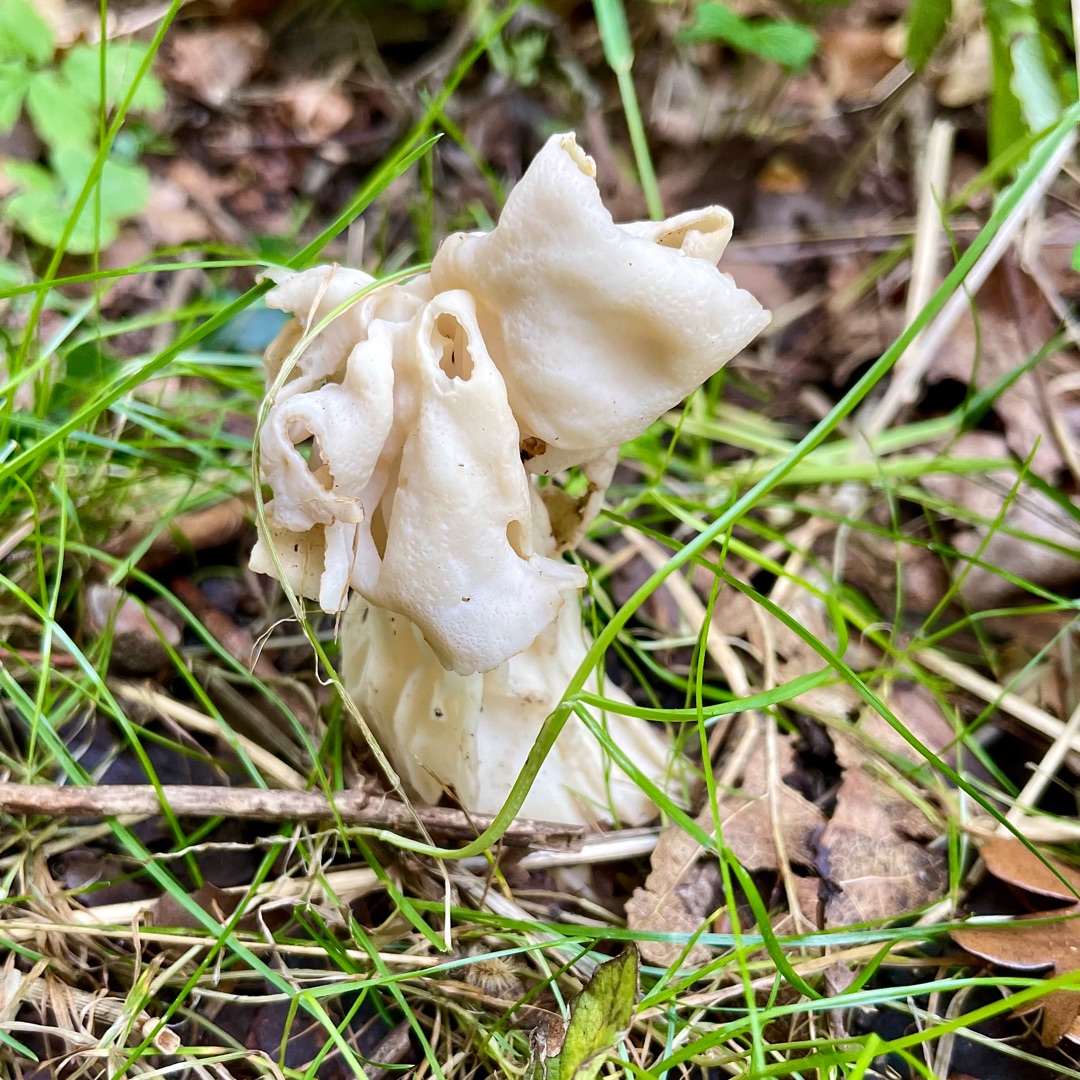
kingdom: Fungi
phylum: Ascomycota
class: Pezizomycetes
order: Pezizales
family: Helvellaceae
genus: Helvella
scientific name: Helvella crispa
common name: Kruset foldhat
